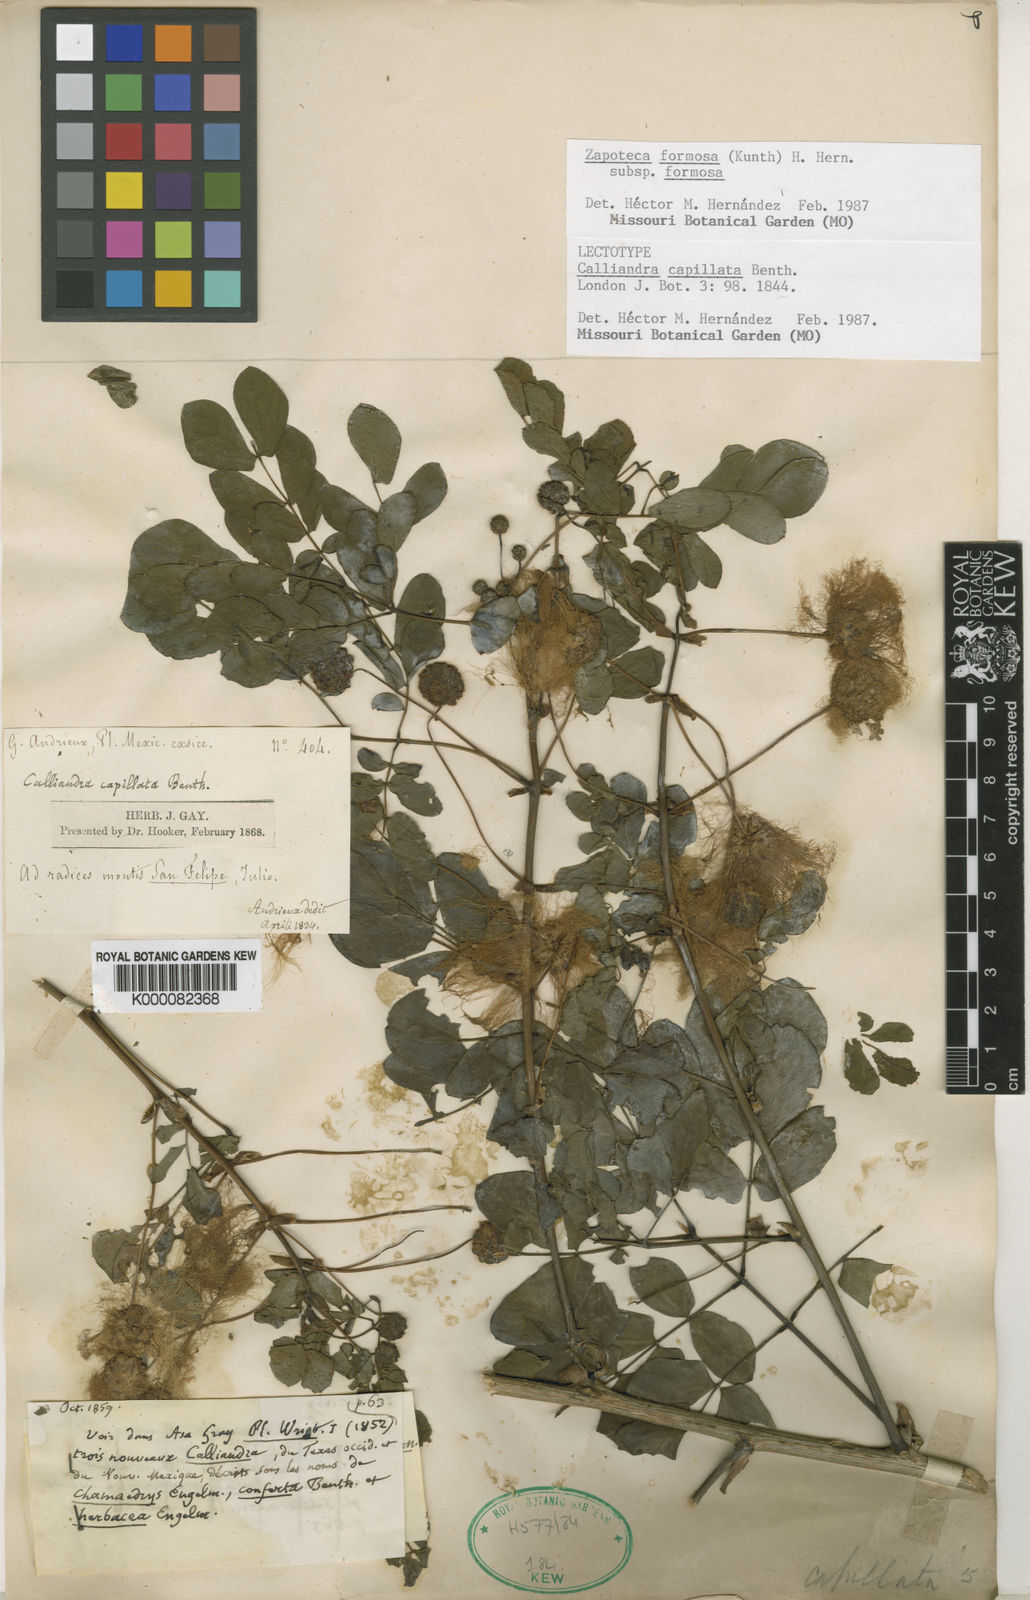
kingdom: Plantae
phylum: Tracheophyta
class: Magnoliopsida
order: Fabales
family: Fabaceae
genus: Zapoteca
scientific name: Zapoteca formosa
